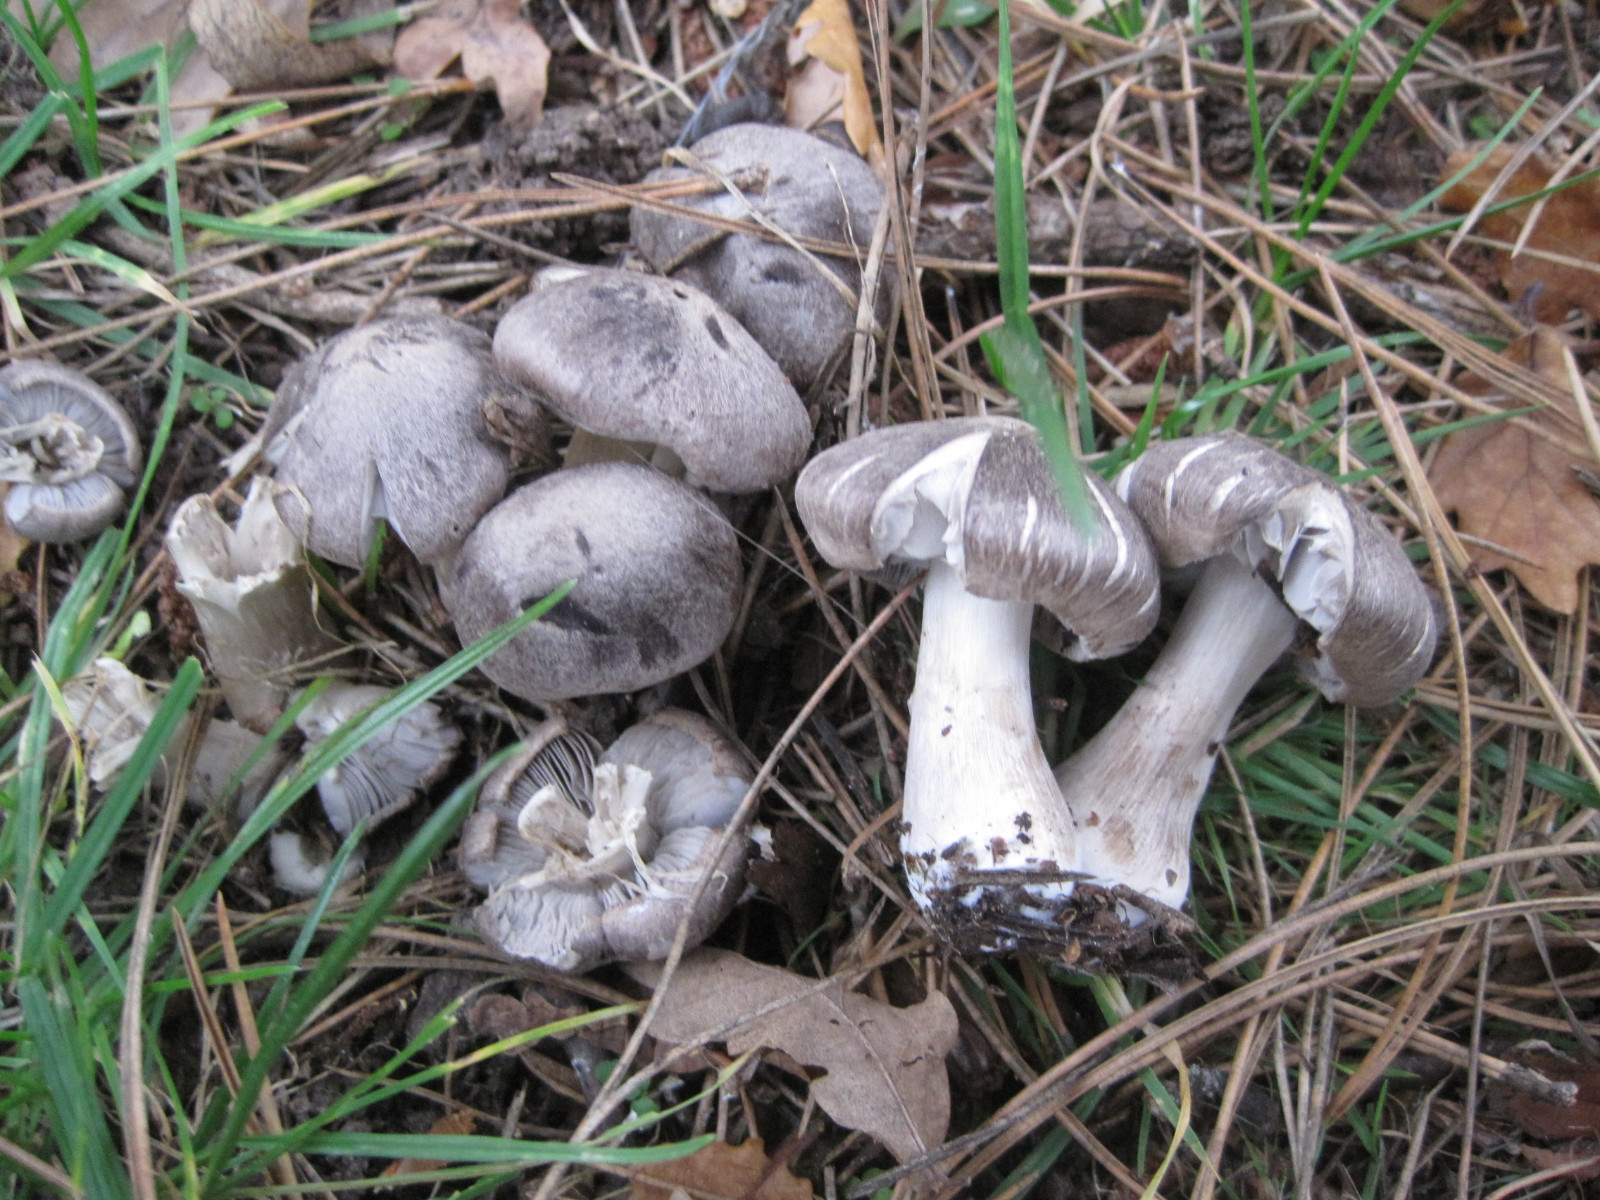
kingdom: Fungi
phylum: Basidiomycota
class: Agaricomycetes
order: Agaricales
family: Tricholomataceae
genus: Tricholoma
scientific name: Tricholoma terreum
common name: jordfarvet ridderhat
